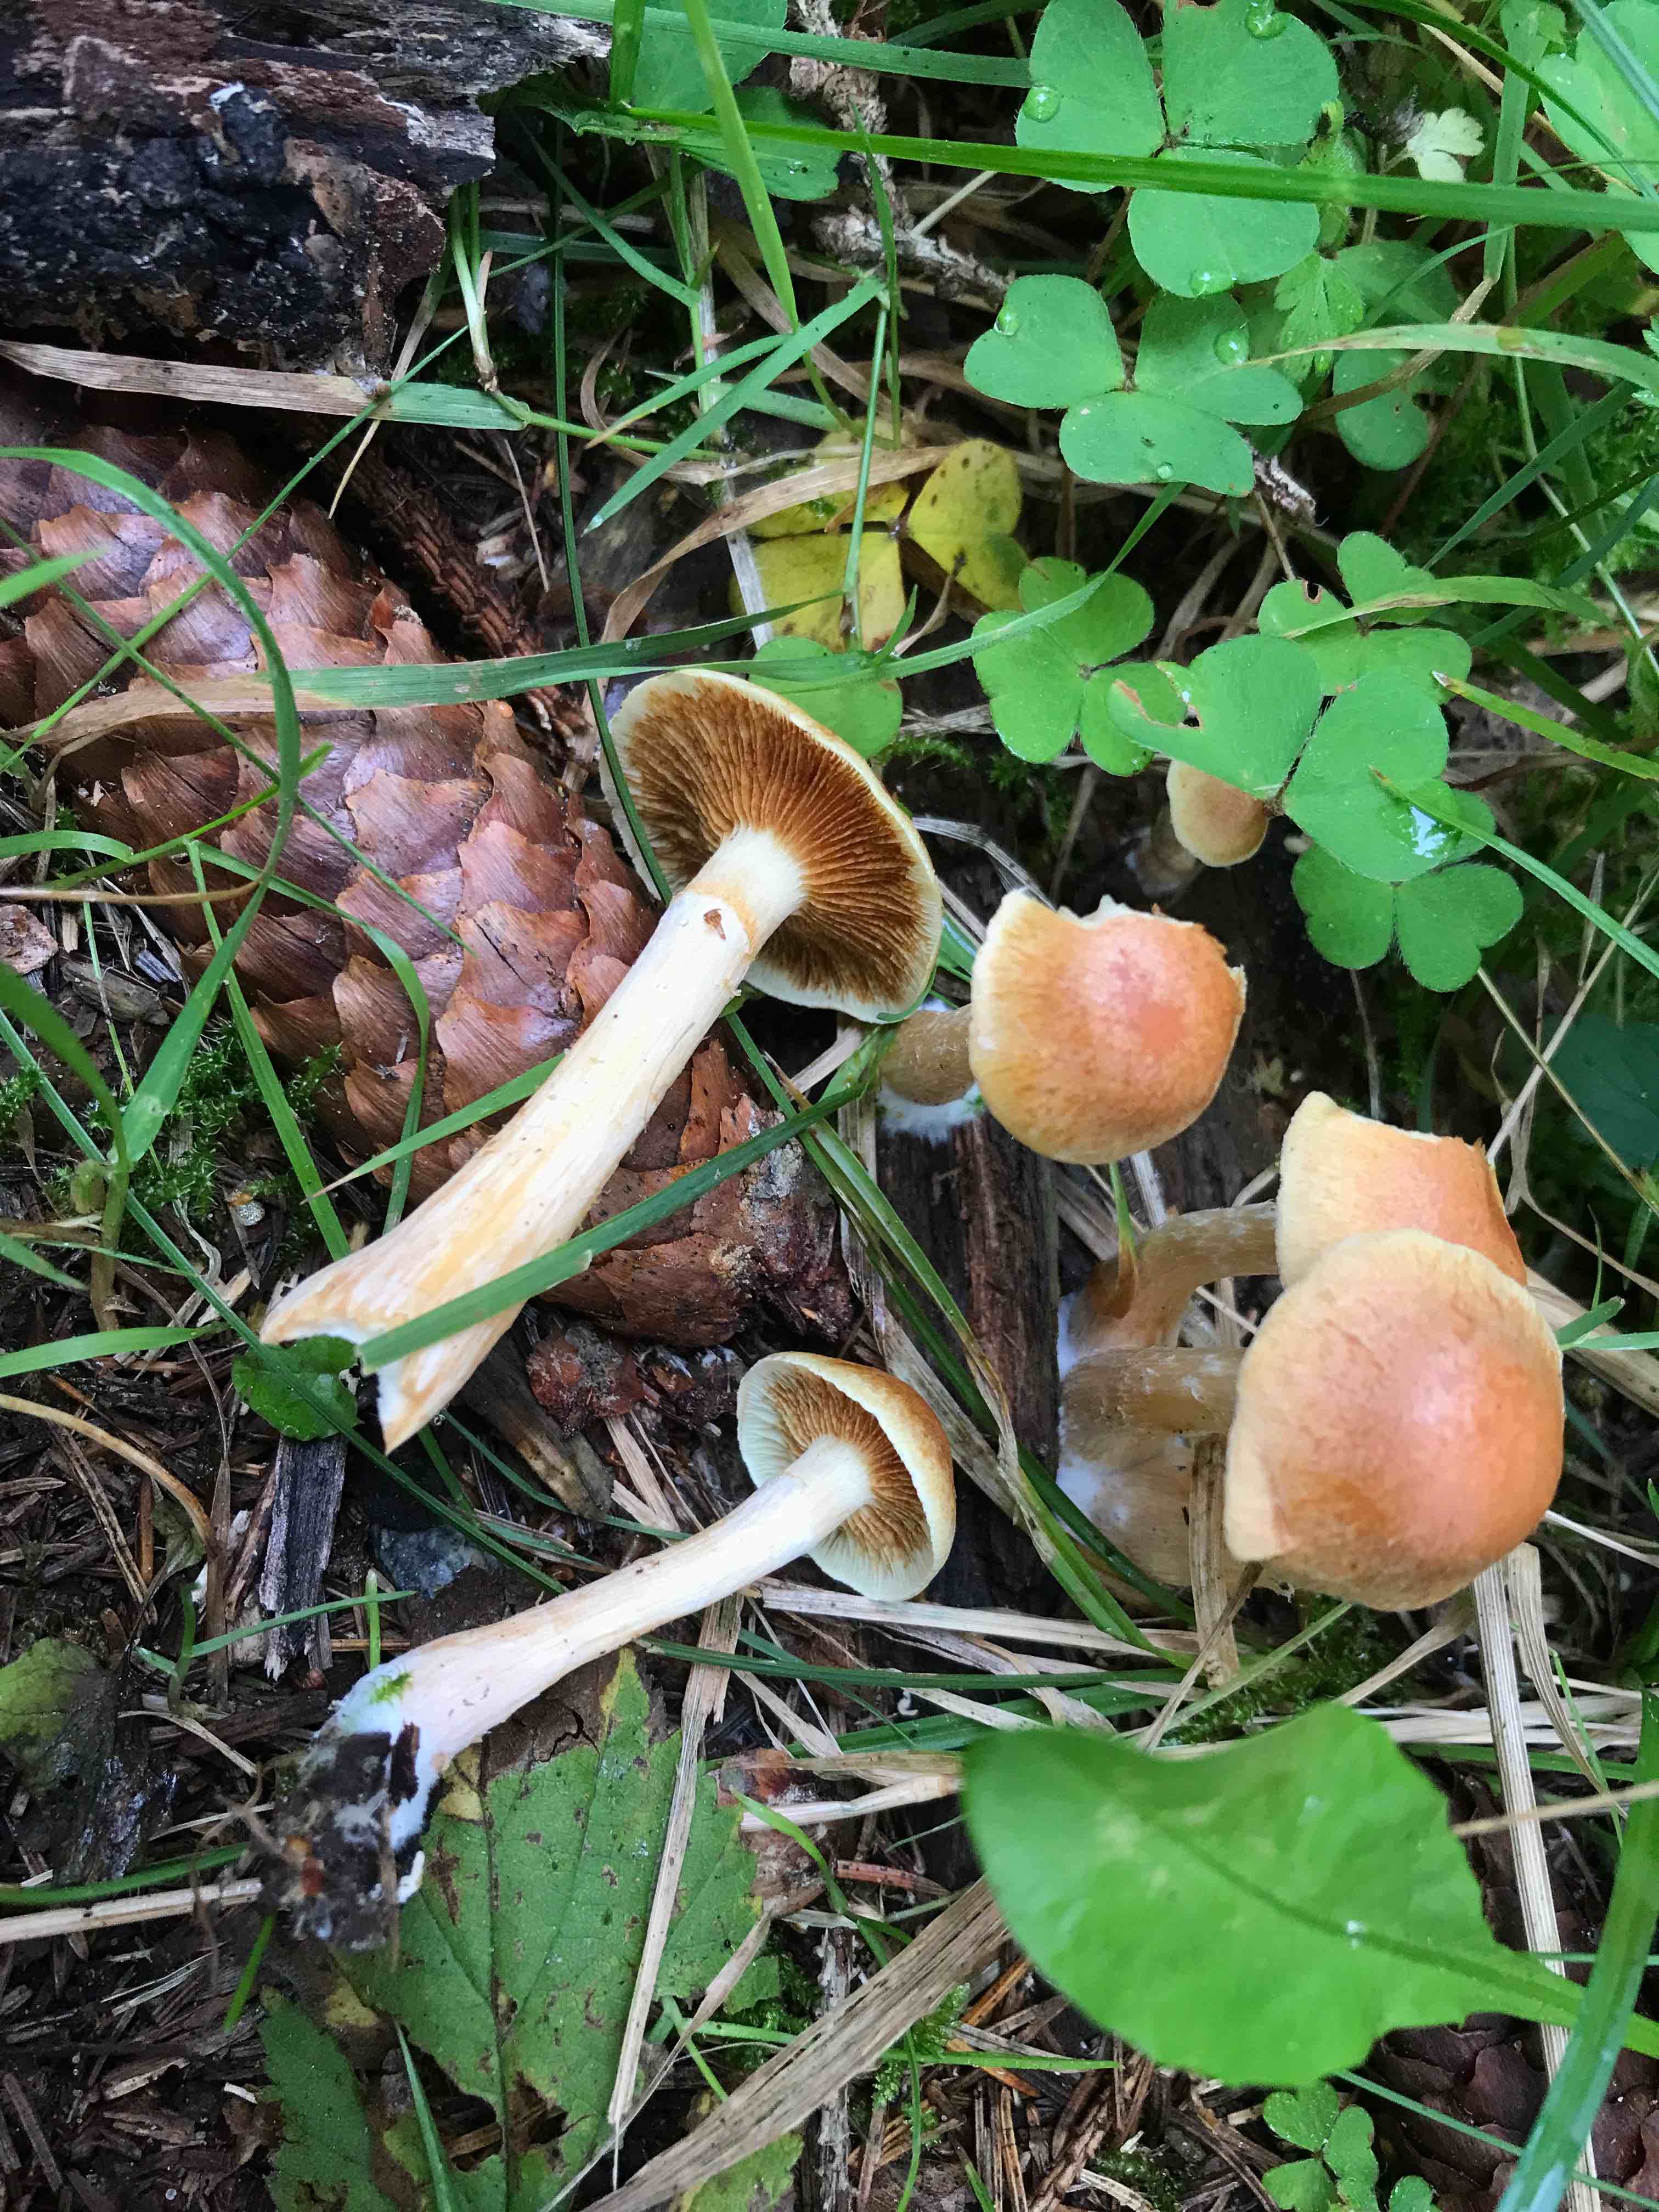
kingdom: Fungi
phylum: Basidiomycota
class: Agaricomycetes
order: Agaricales
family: Hymenogastraceae
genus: Gymnopilus
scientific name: Gymnopilus penetrans
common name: plettet flammehat
